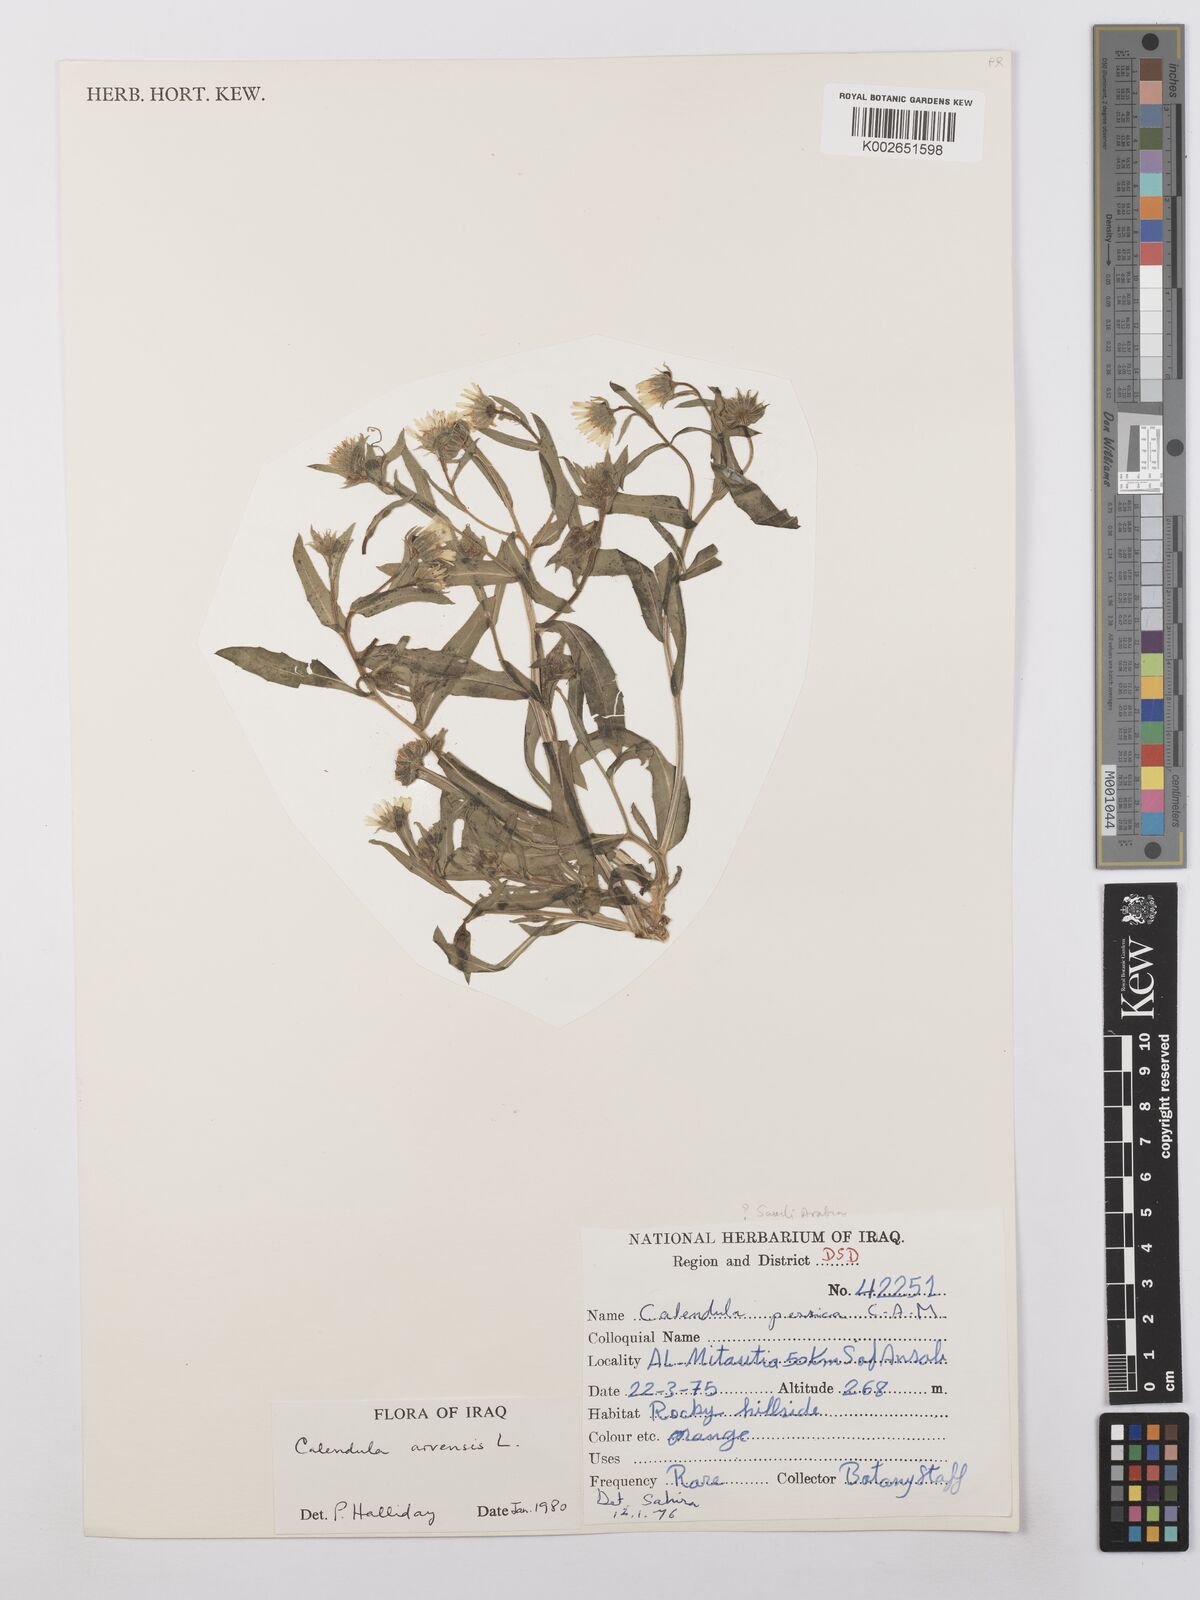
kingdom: Plantae
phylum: Tracheophyta
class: Magnoliopsida
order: Asterales
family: Asteraceae
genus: Calendula
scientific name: Calendula arvensis
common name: Field marigold
